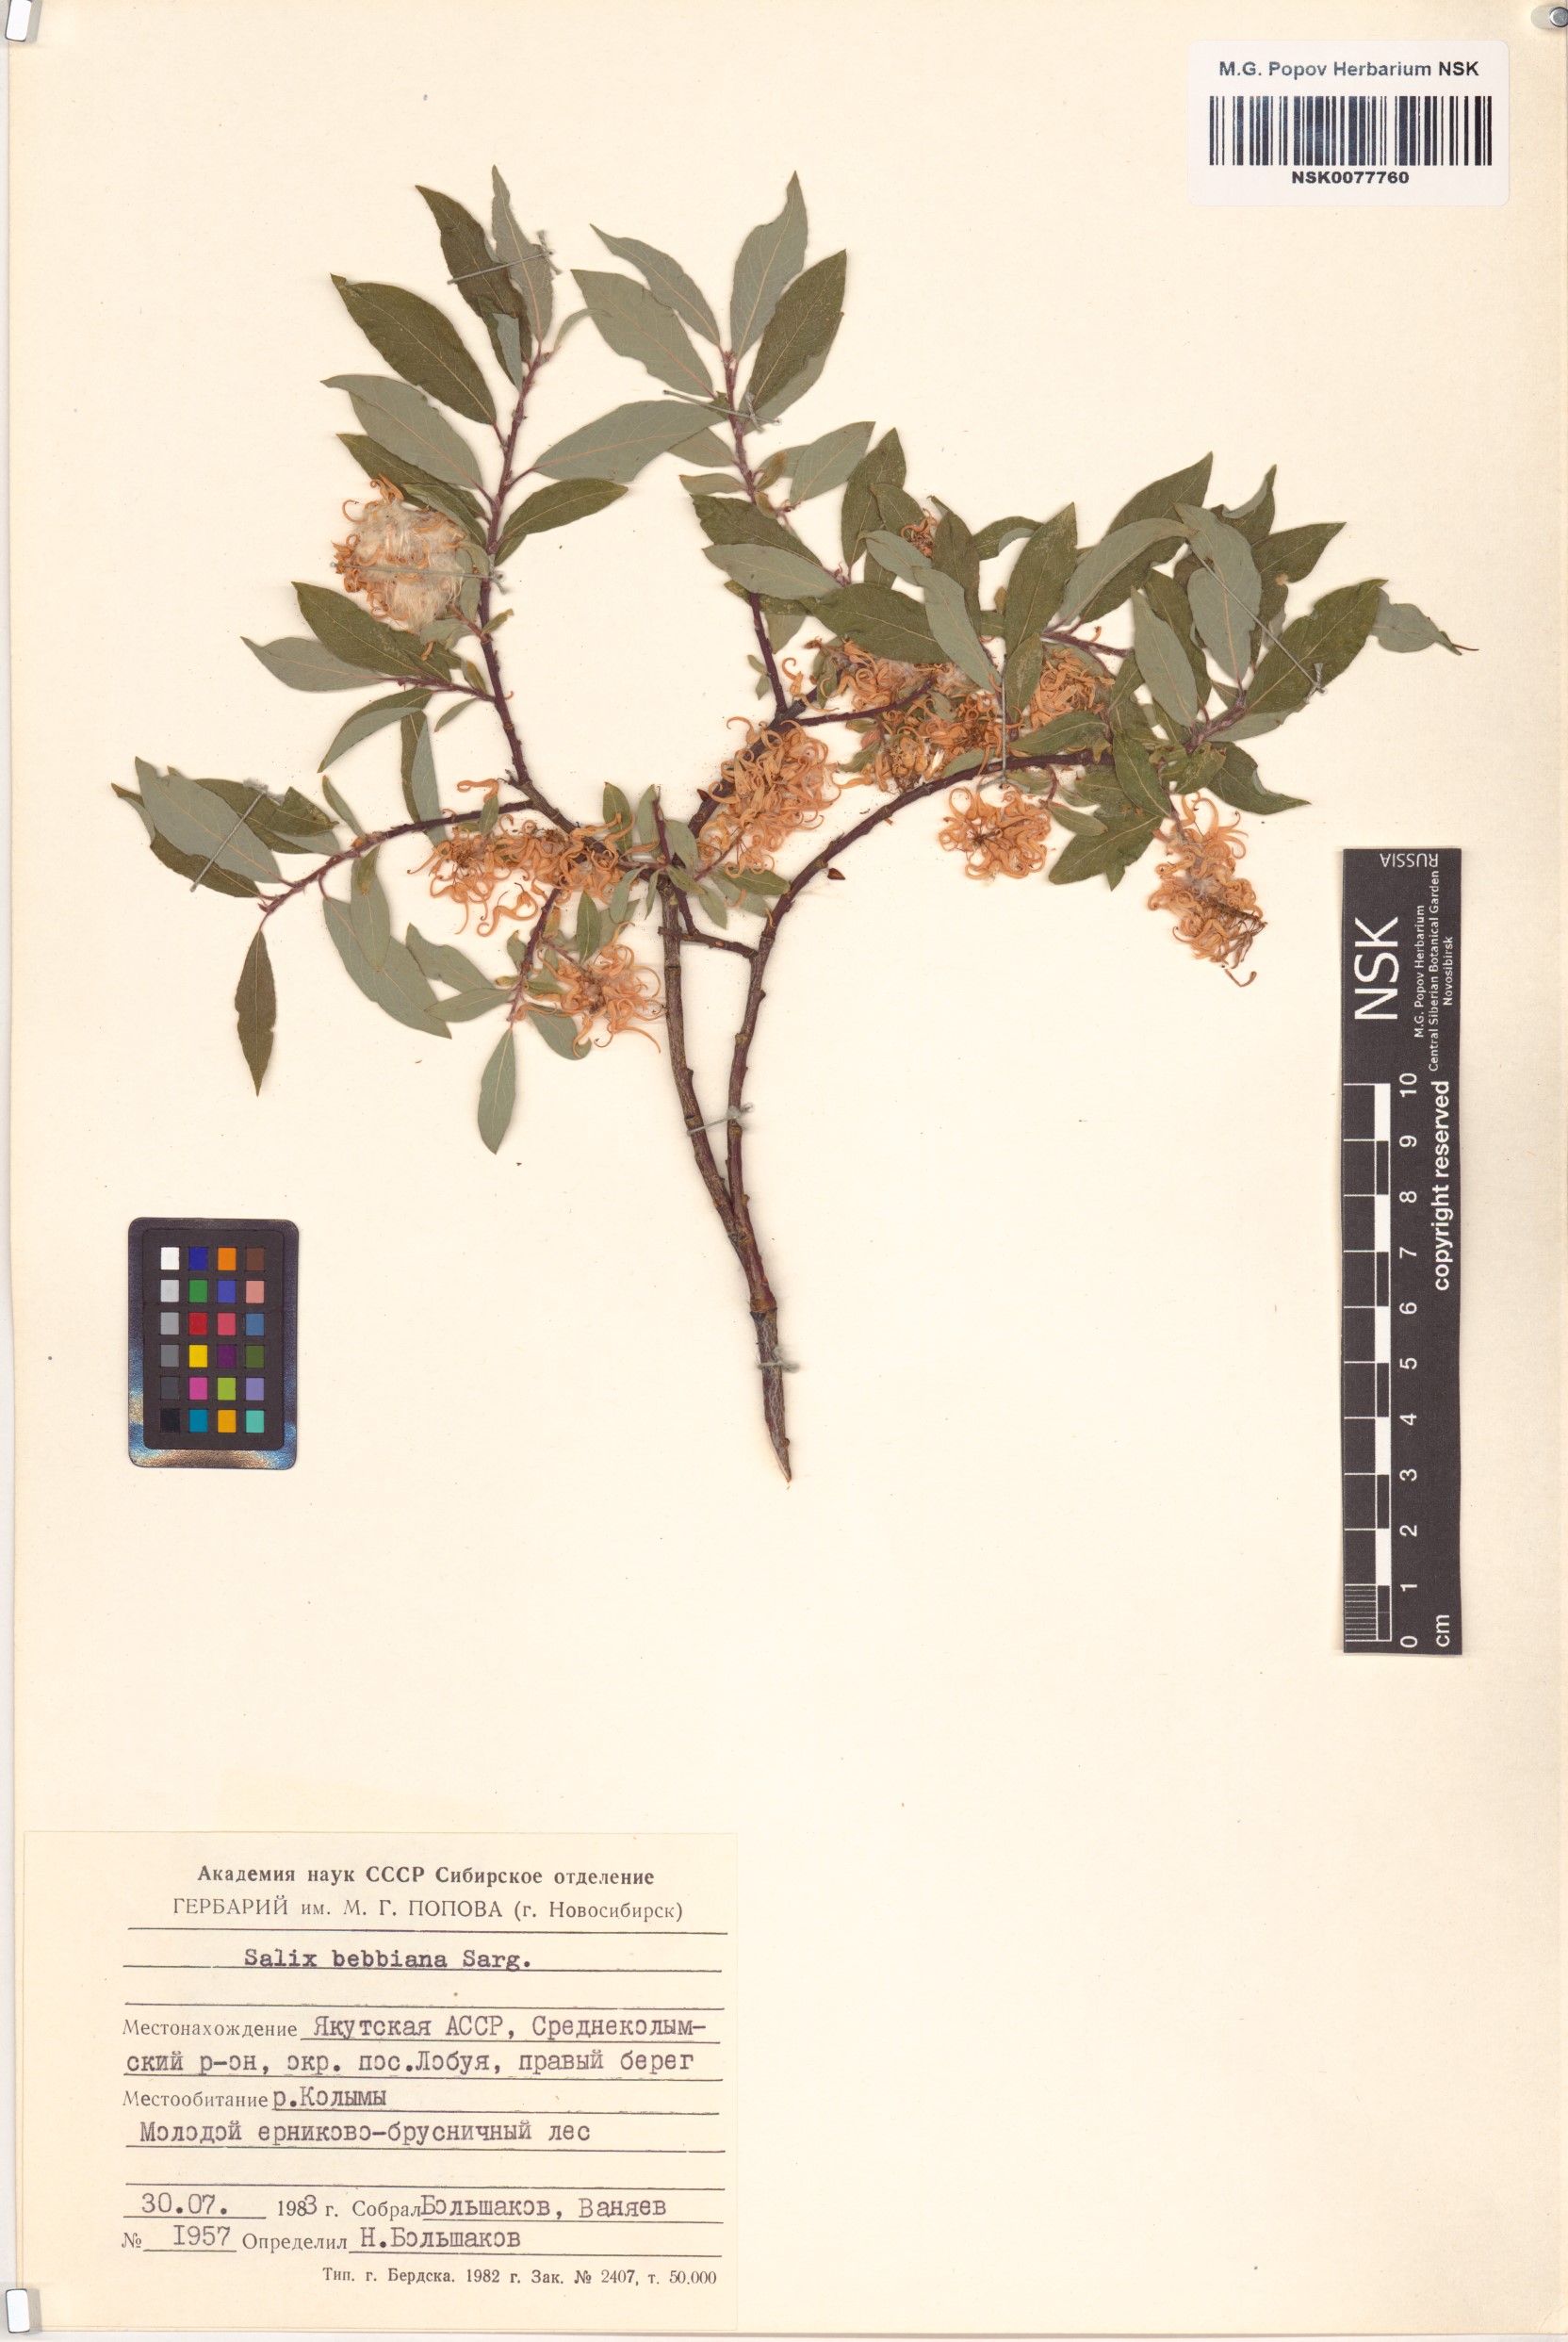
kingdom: Plantae
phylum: Tracheophyta
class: Magnoliopsida
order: Malpighiales
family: Salicaceae
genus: Salix
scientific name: Salix bebbiana
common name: Bebb's willow
